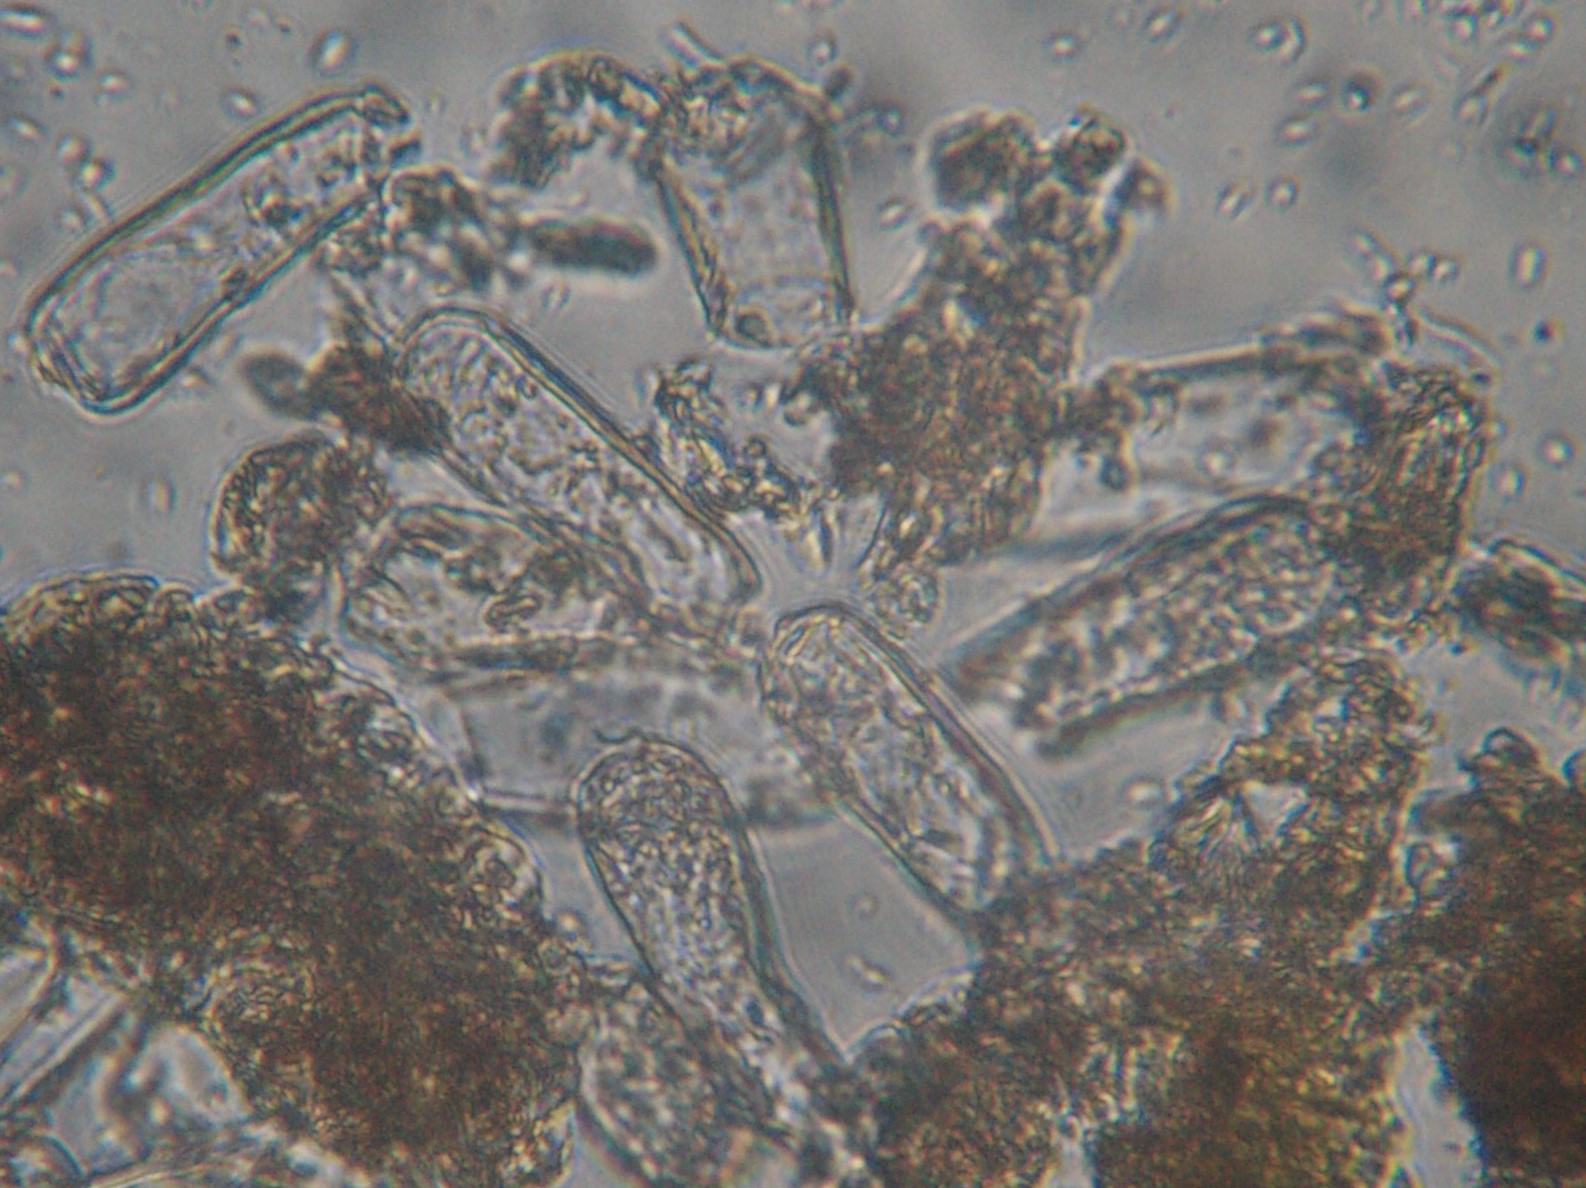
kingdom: Fungi
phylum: Ascomycota
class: Taphrinomycetes
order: Taphrinales
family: Taphrinaceae
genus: Taphrina
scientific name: Taphrina caerulescens
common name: Oak leaf blister
